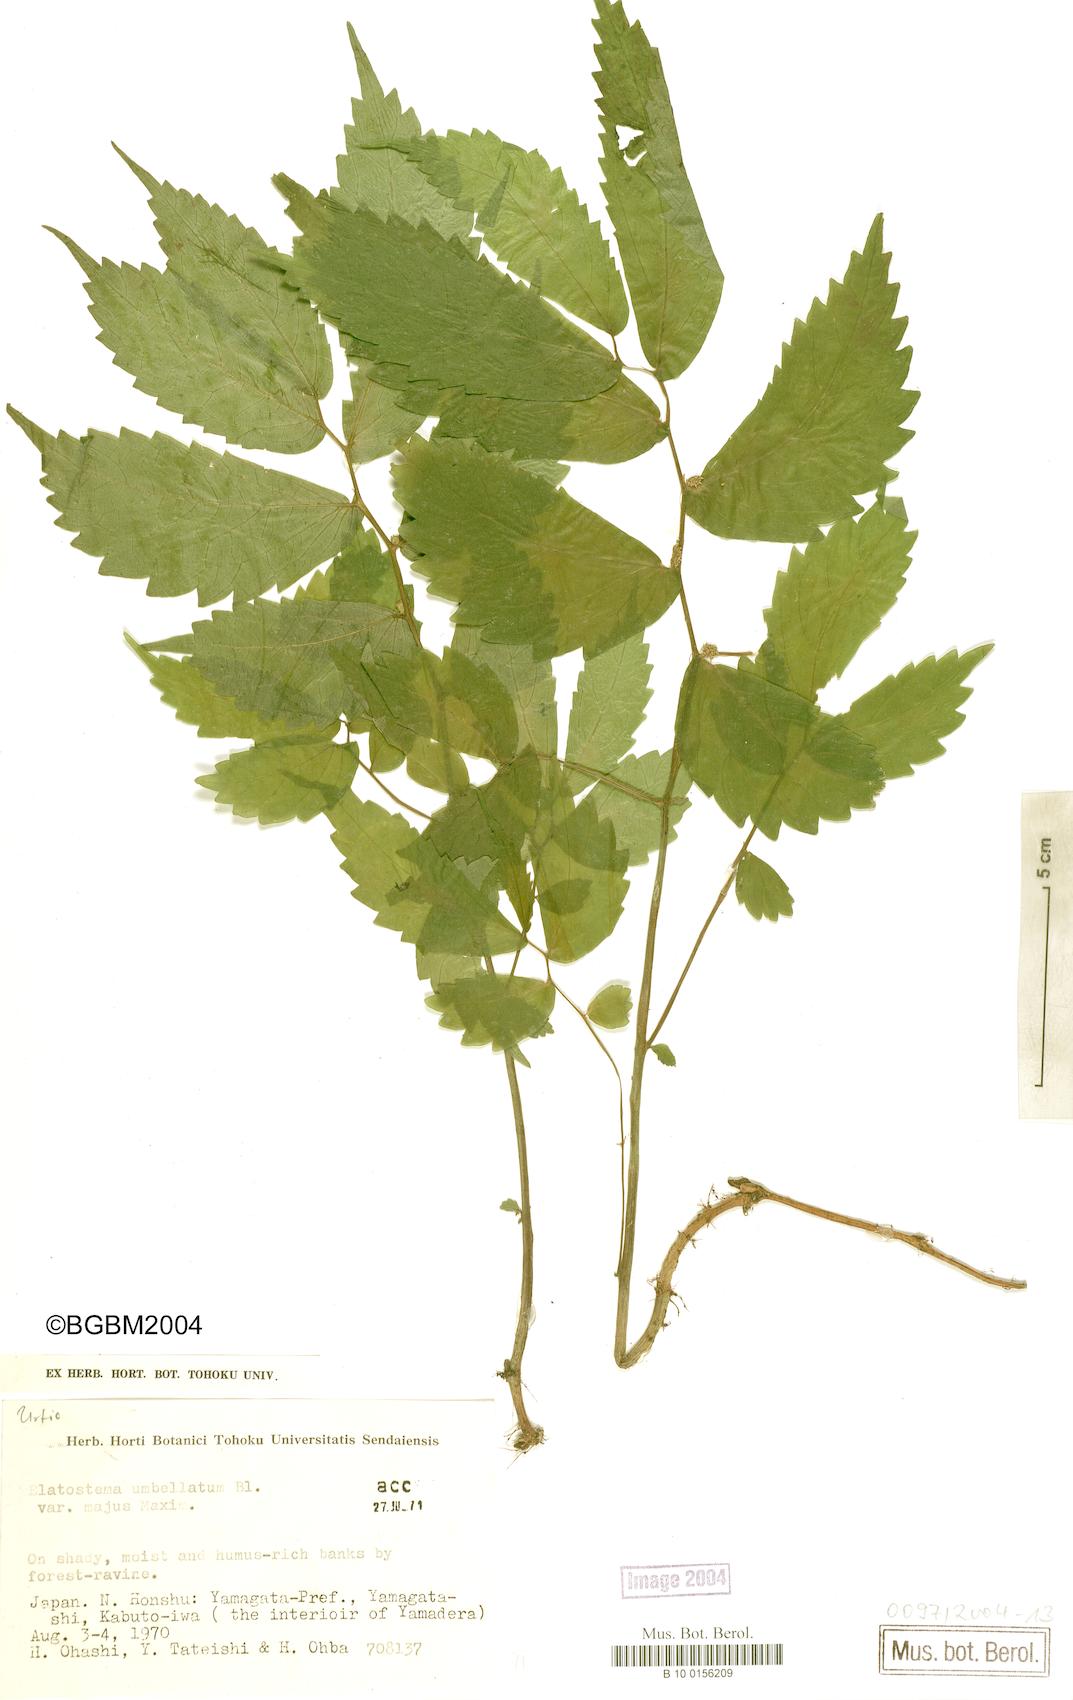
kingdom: Plantae
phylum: Tracheophyta
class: Magnoliopsida
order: Rosales
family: Urticaceae
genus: Elatostema
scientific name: Elatostema involucratum
